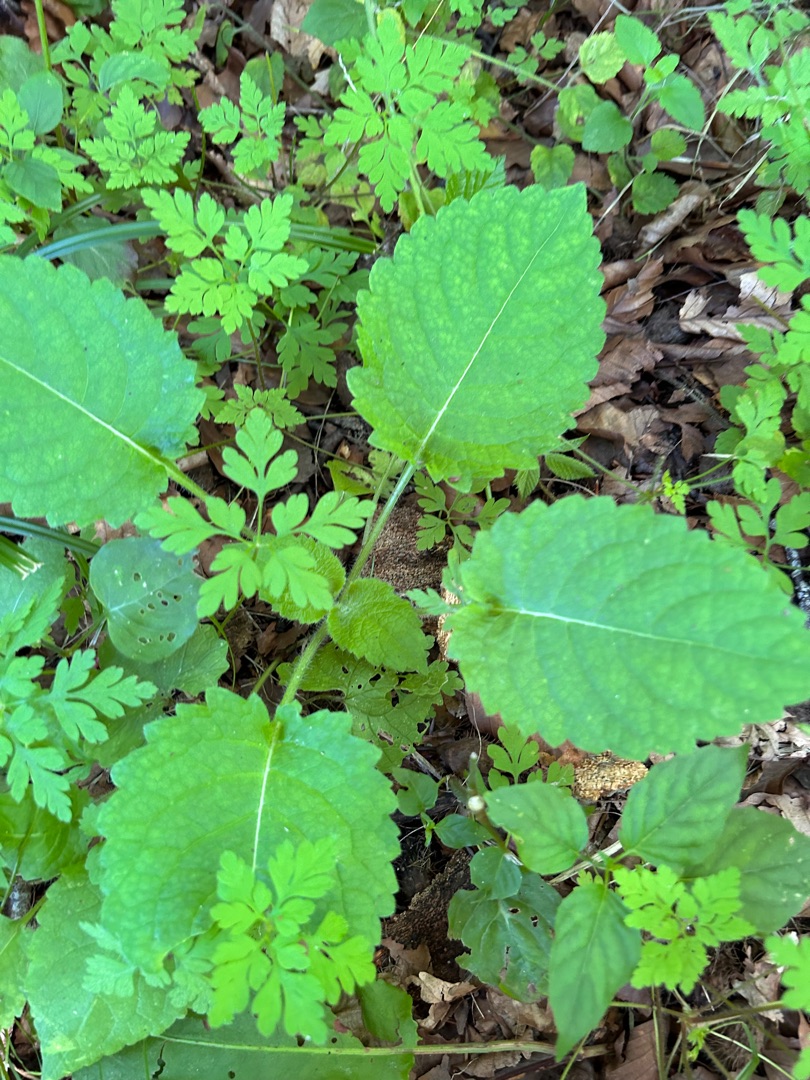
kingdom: Plantae
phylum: Tracheophyta
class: Magnoliopsida
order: Dipsacales
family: Caprifoliaceae
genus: Dipsacus
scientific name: Dipsacus pilosus
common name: Håret kartebolle
